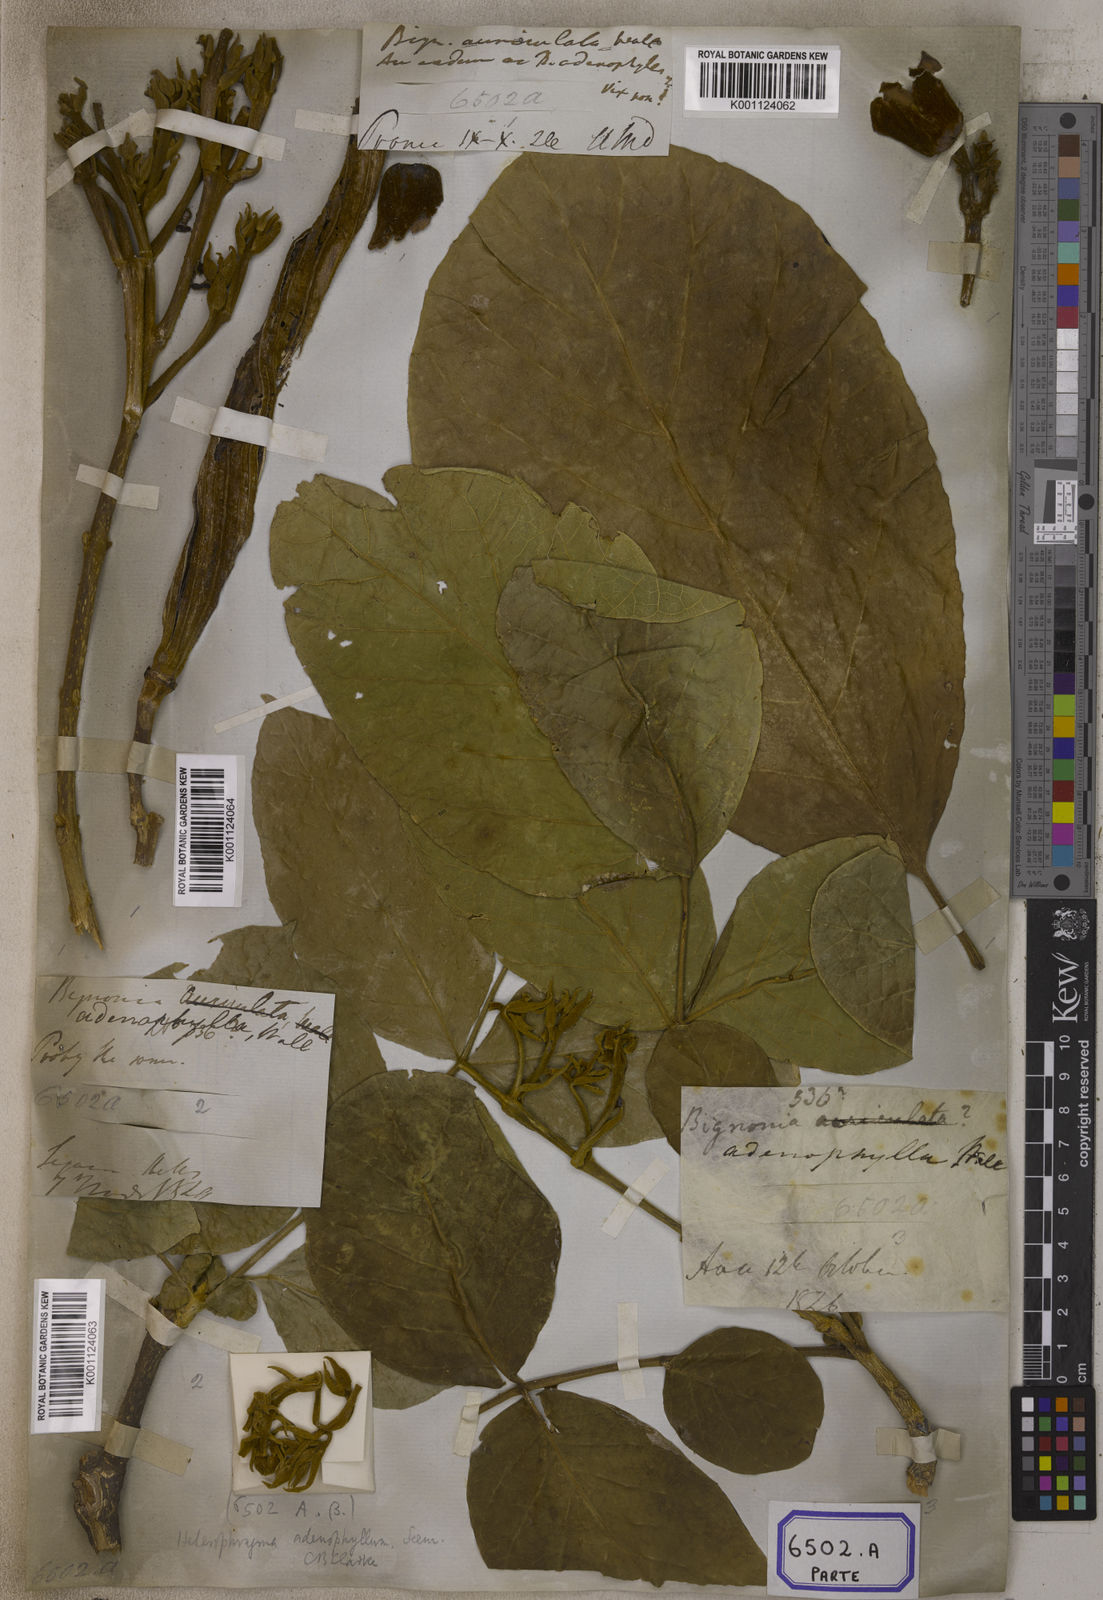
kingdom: Plantae
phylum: Tracheophyta
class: Magnoliopsida
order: Lamiales
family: Bignoniaceae
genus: Bignonia
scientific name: Bignonia
